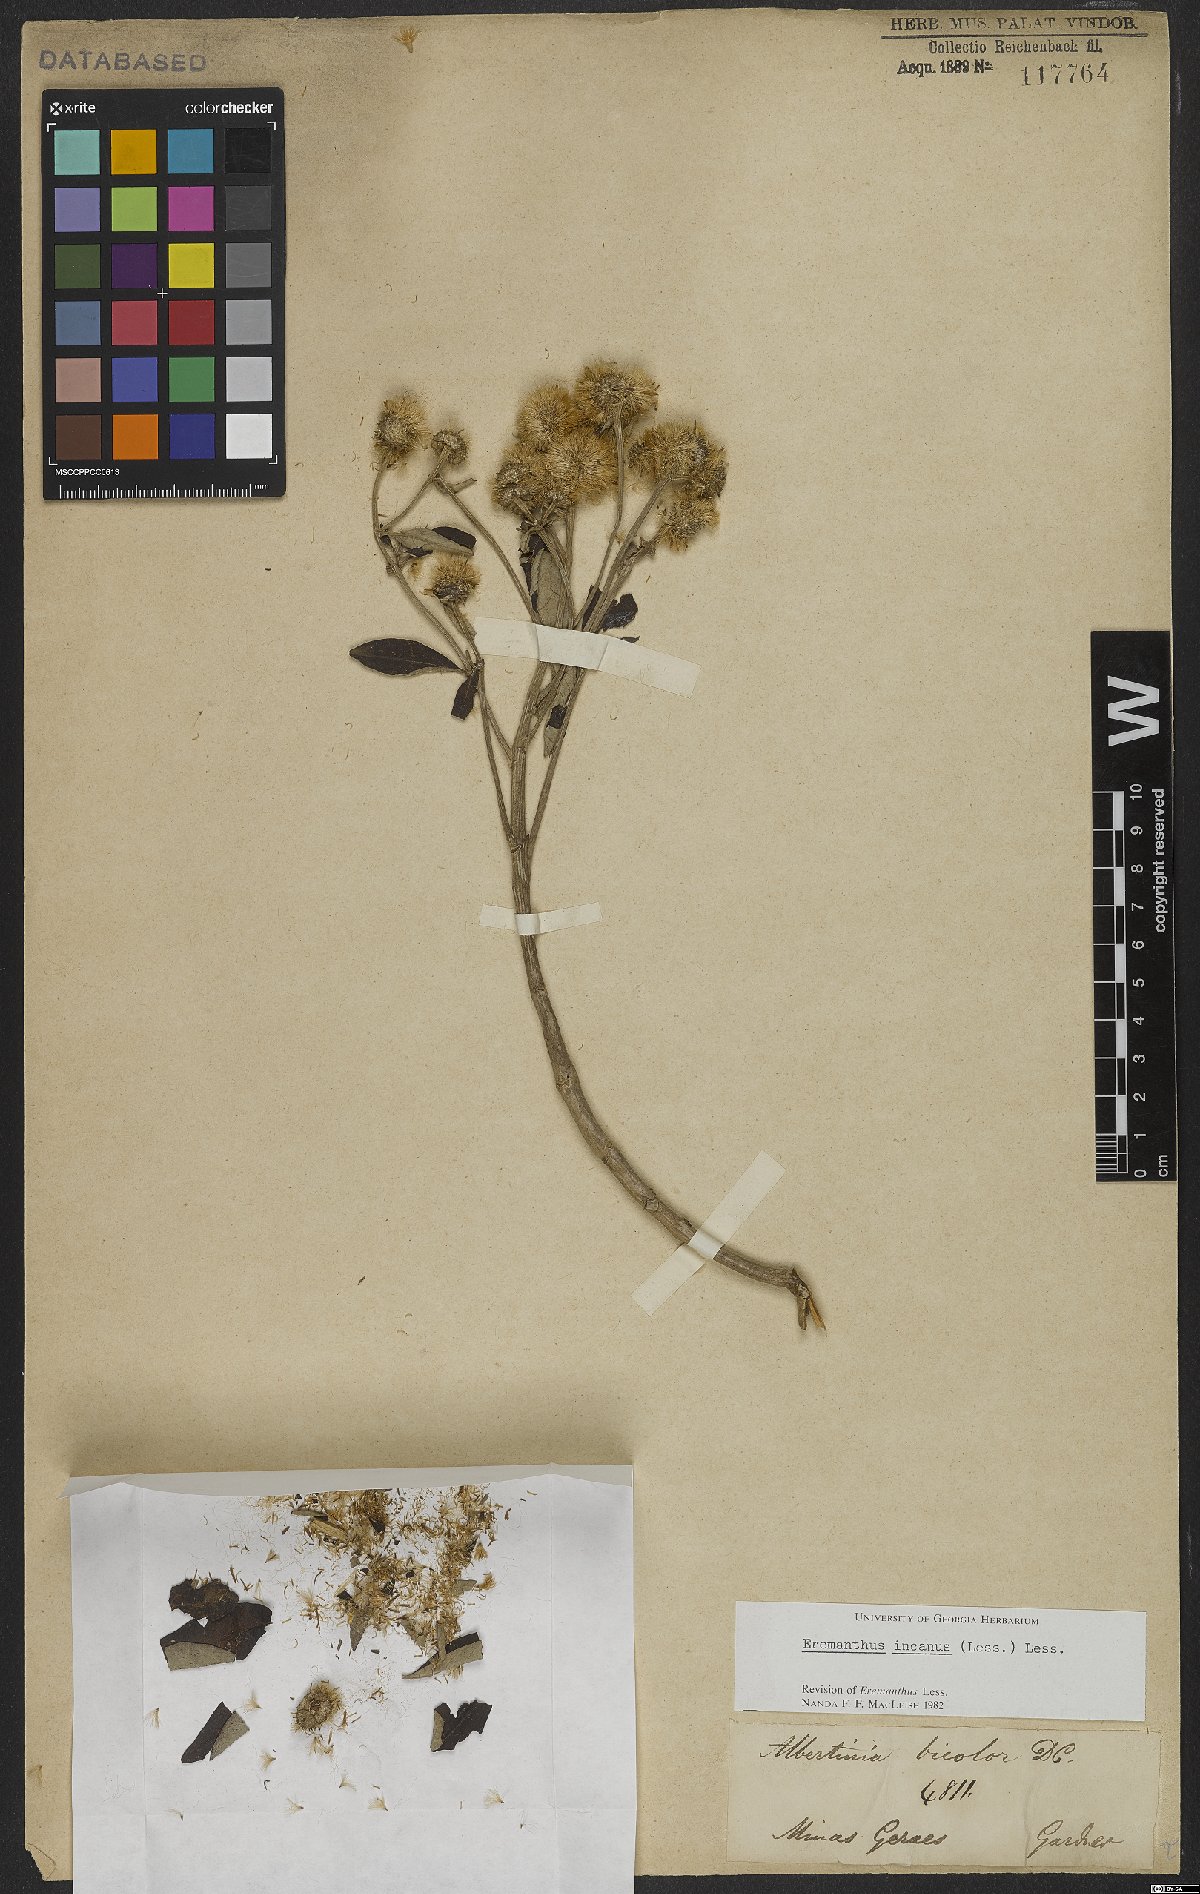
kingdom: Plantae
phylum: Tracheophyta
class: Magnoliopsida
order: Asterales
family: Asteraceae
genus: Eremanthus
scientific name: Eremanthus incanus
